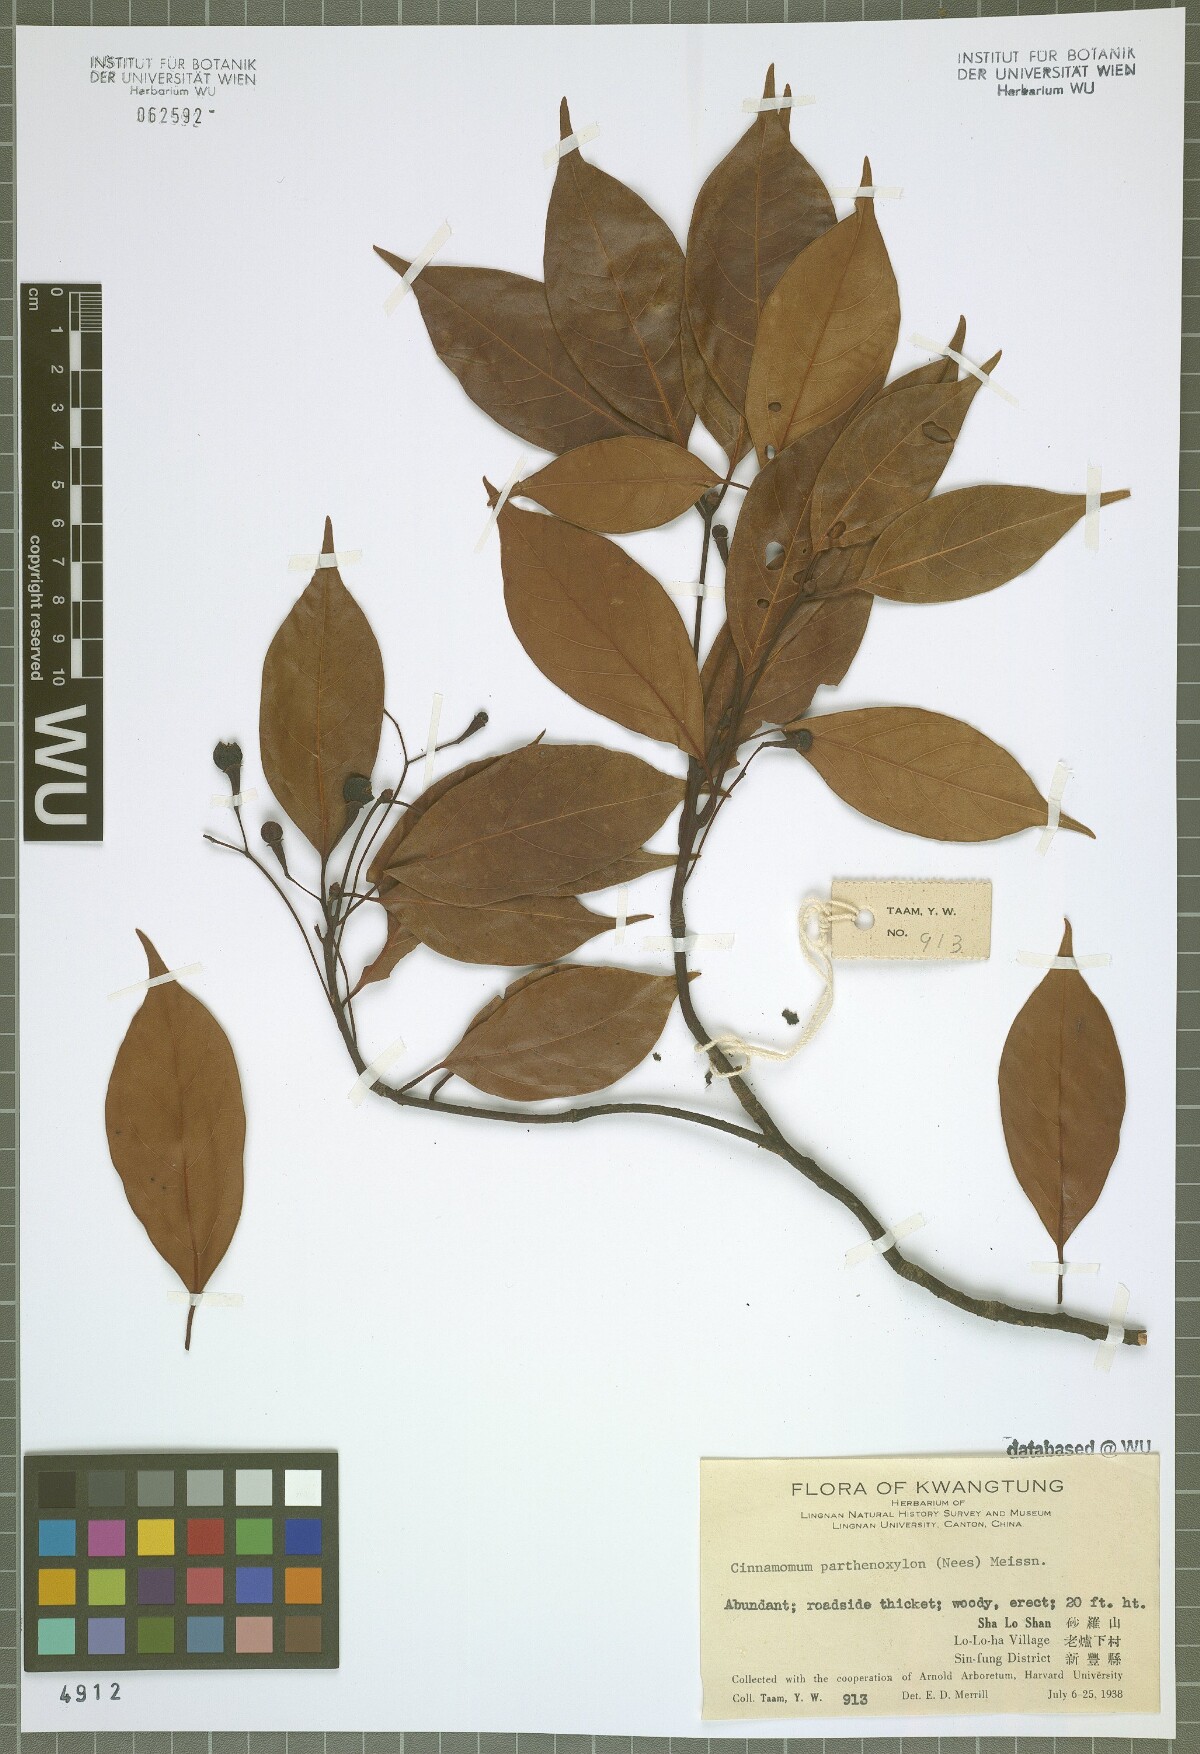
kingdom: Plantae
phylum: Tracheophyta
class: Magnoliopsida
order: Laurales
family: Lauraceae
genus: Cinnamomum
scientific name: Cinnamomum parthenoxylon
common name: Martaban camphor wood
